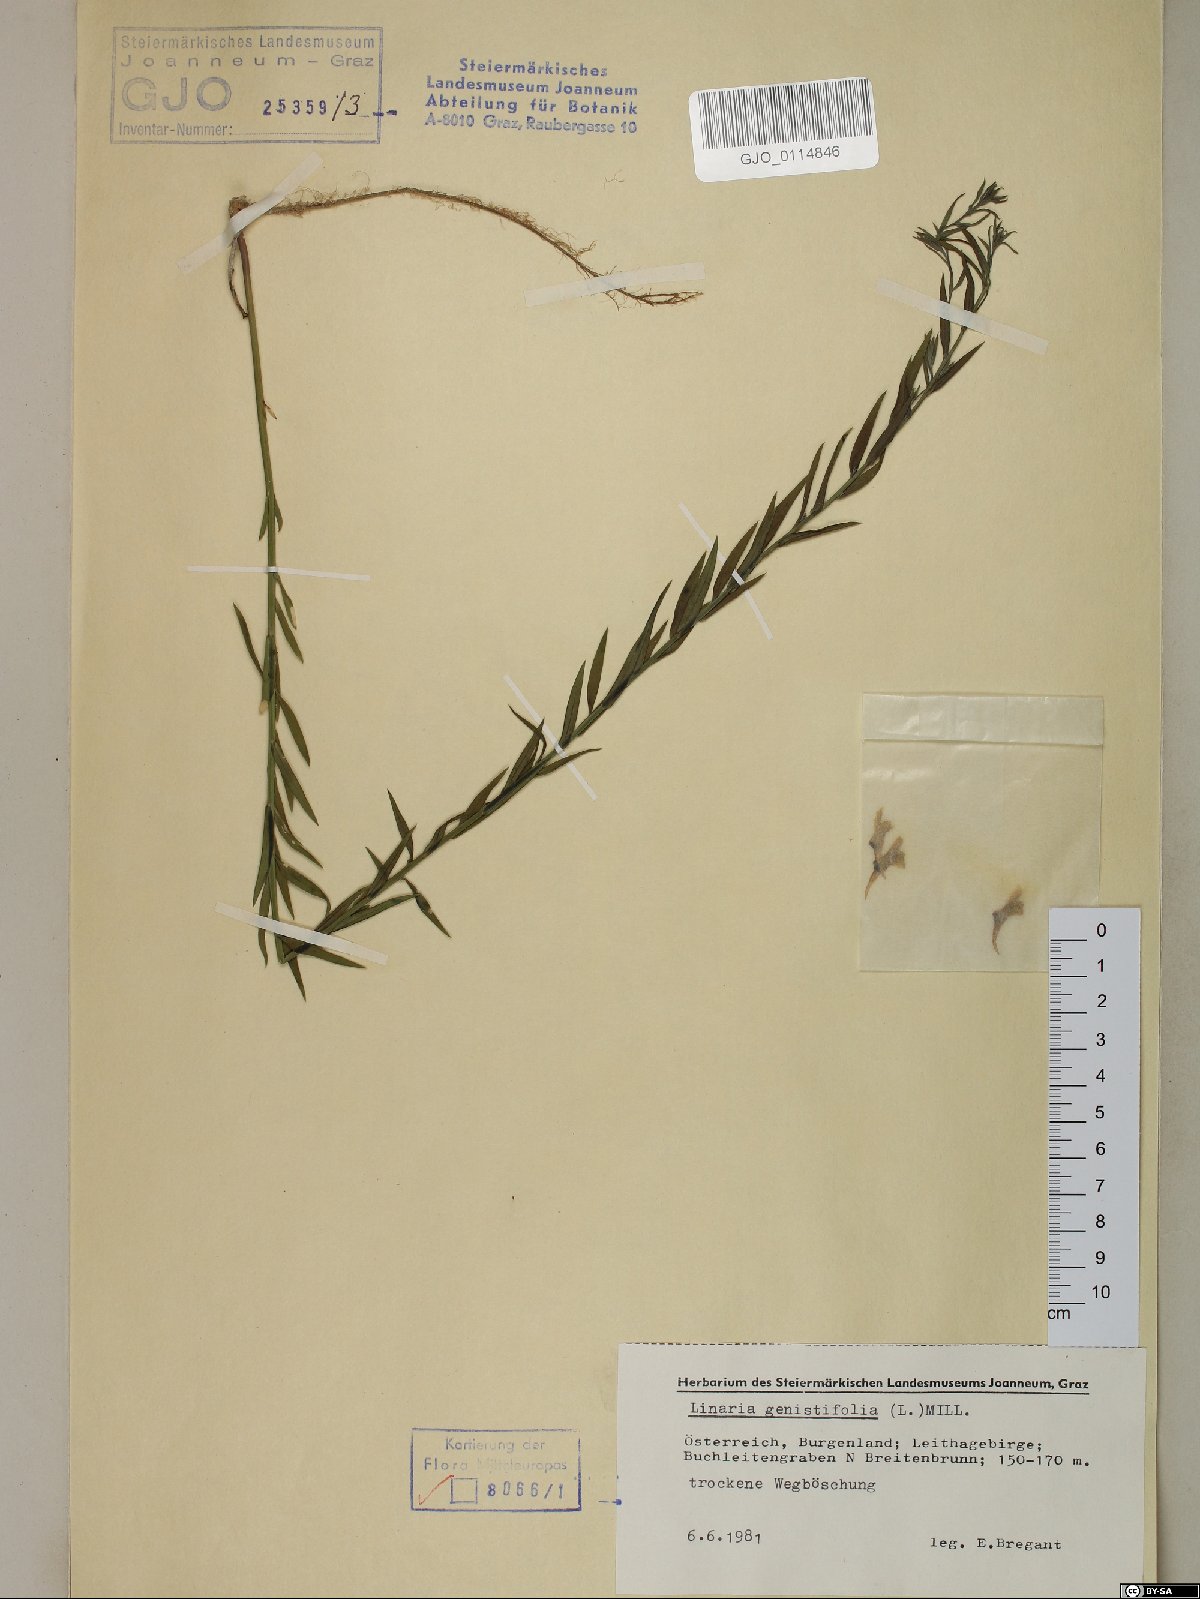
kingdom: Plantae
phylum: Tracheophyta
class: Magnoliopsida
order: Lamiales
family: Plantaginaceae
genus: Linaria
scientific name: Linaria genistifolia
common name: Broomleaf toadflax
